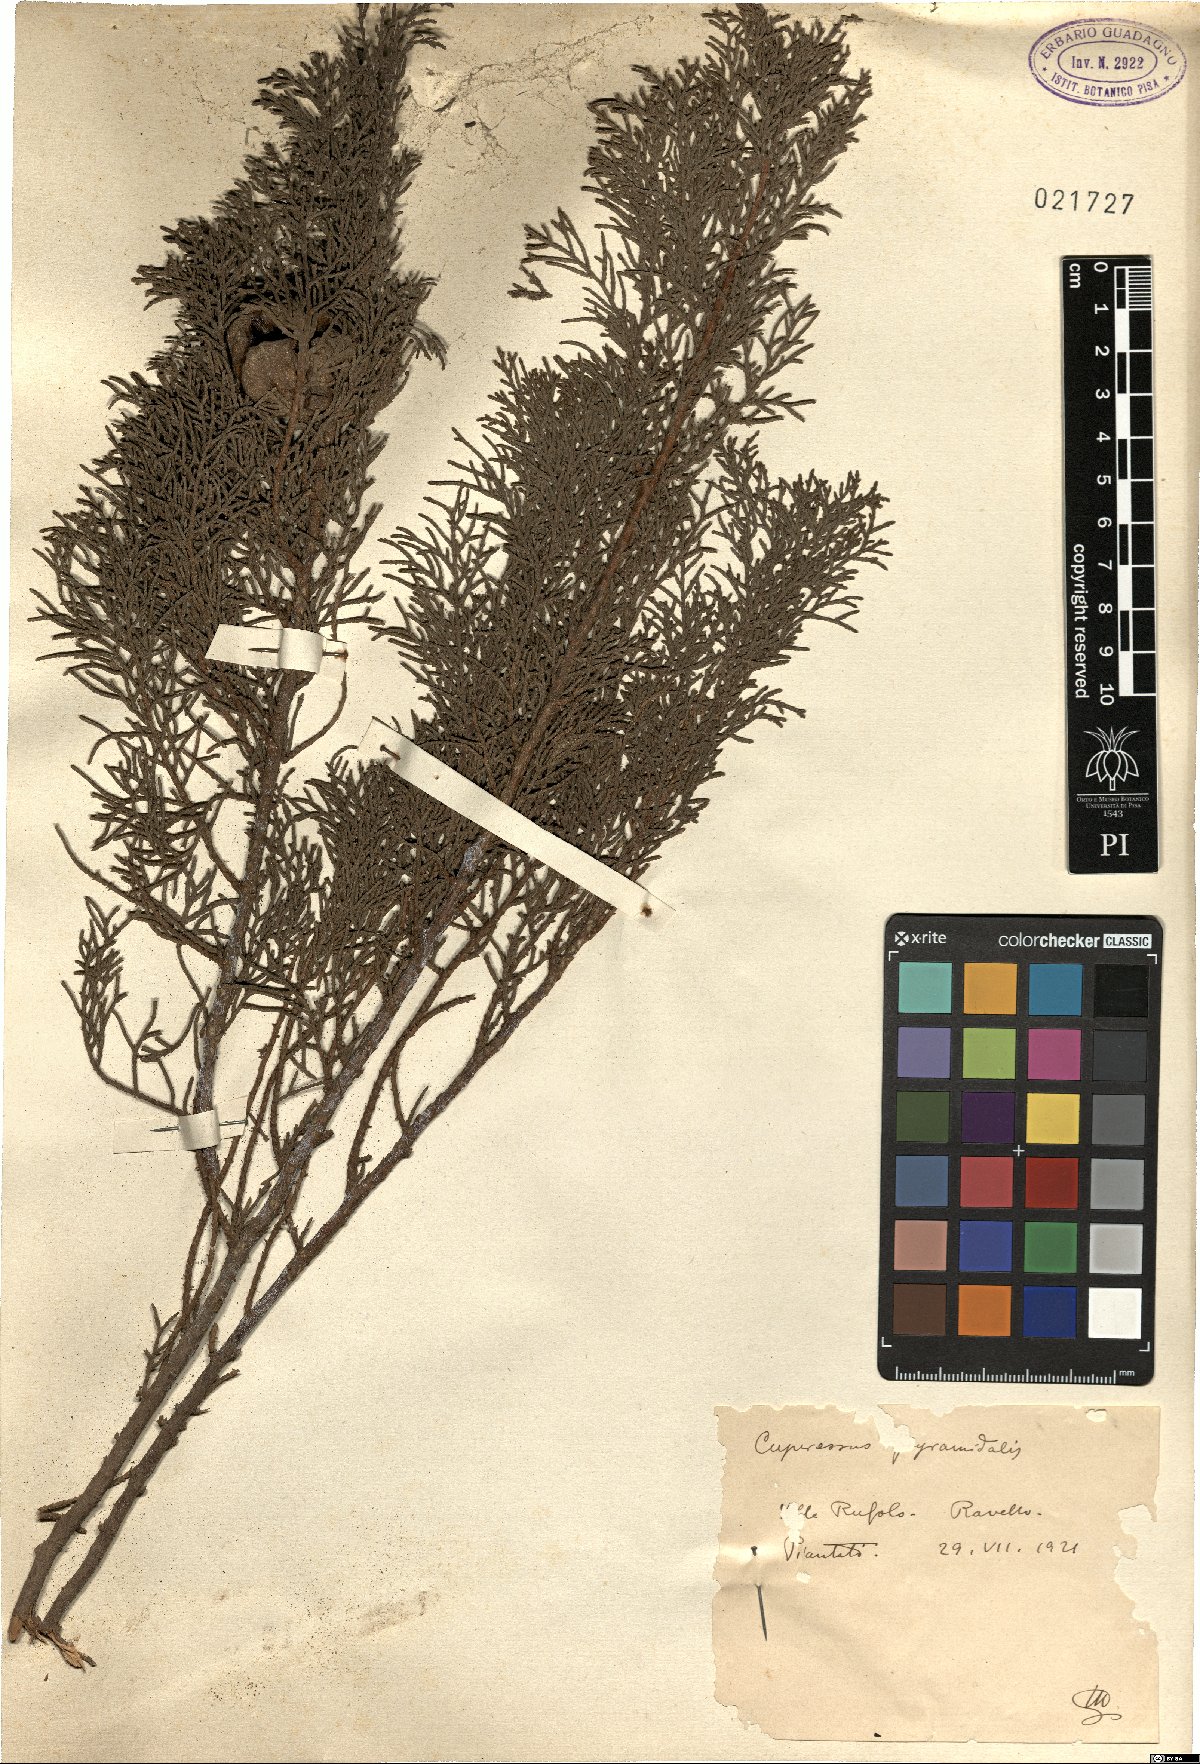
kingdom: Plantae
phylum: Tracheophyta
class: Pinopsida
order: Pinales
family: Cupressaceae
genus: Cupressus
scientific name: Cupressus sempervirens
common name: Italian cypress
